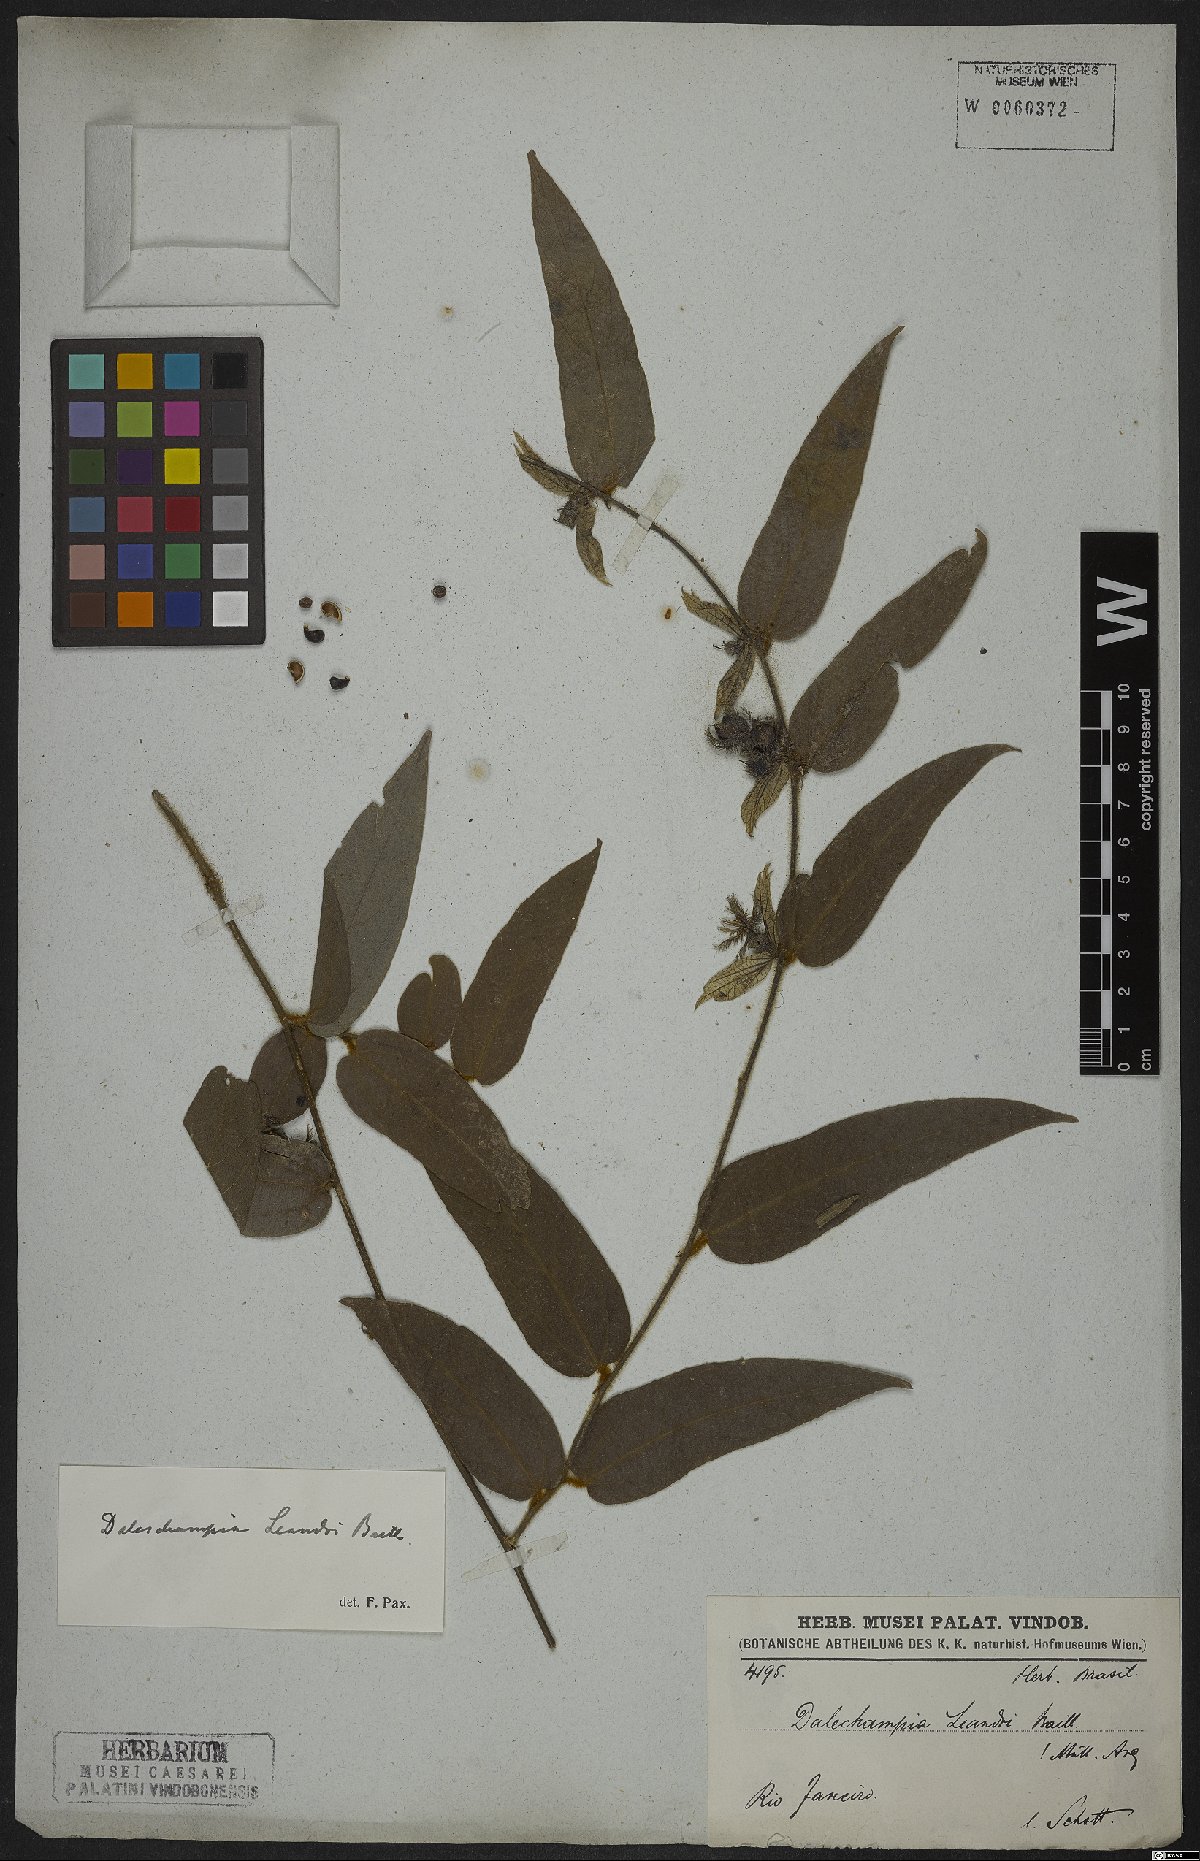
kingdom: Plantae
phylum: Tracheophyta
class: Magnoliopsida
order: Malpighiales
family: Euphorbiaceae
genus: Dalechampia
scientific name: Dalechampia leandrii
